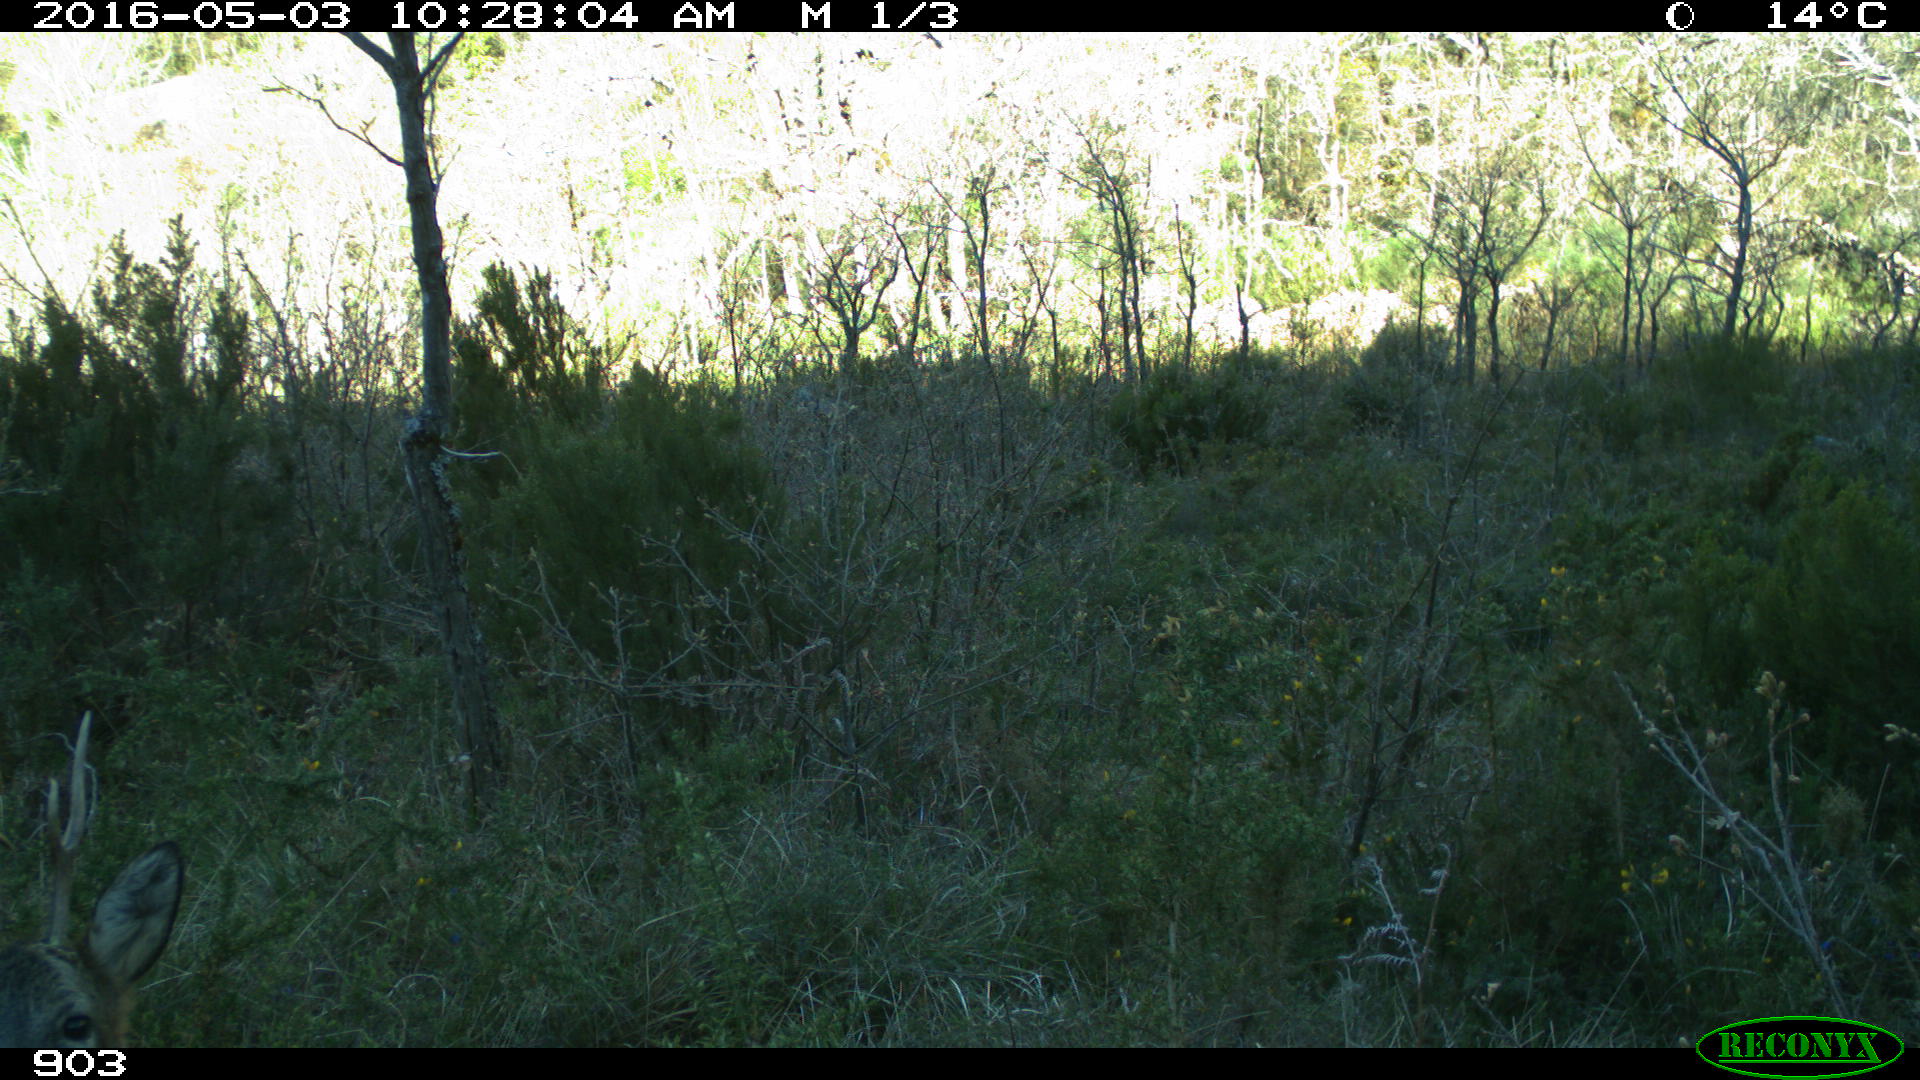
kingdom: Animalia
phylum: Chordata
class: Mammalia
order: Artiodactyla
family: Cervidae
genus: Capreolus
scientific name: Capreolus capreolus
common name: Western roe deer
